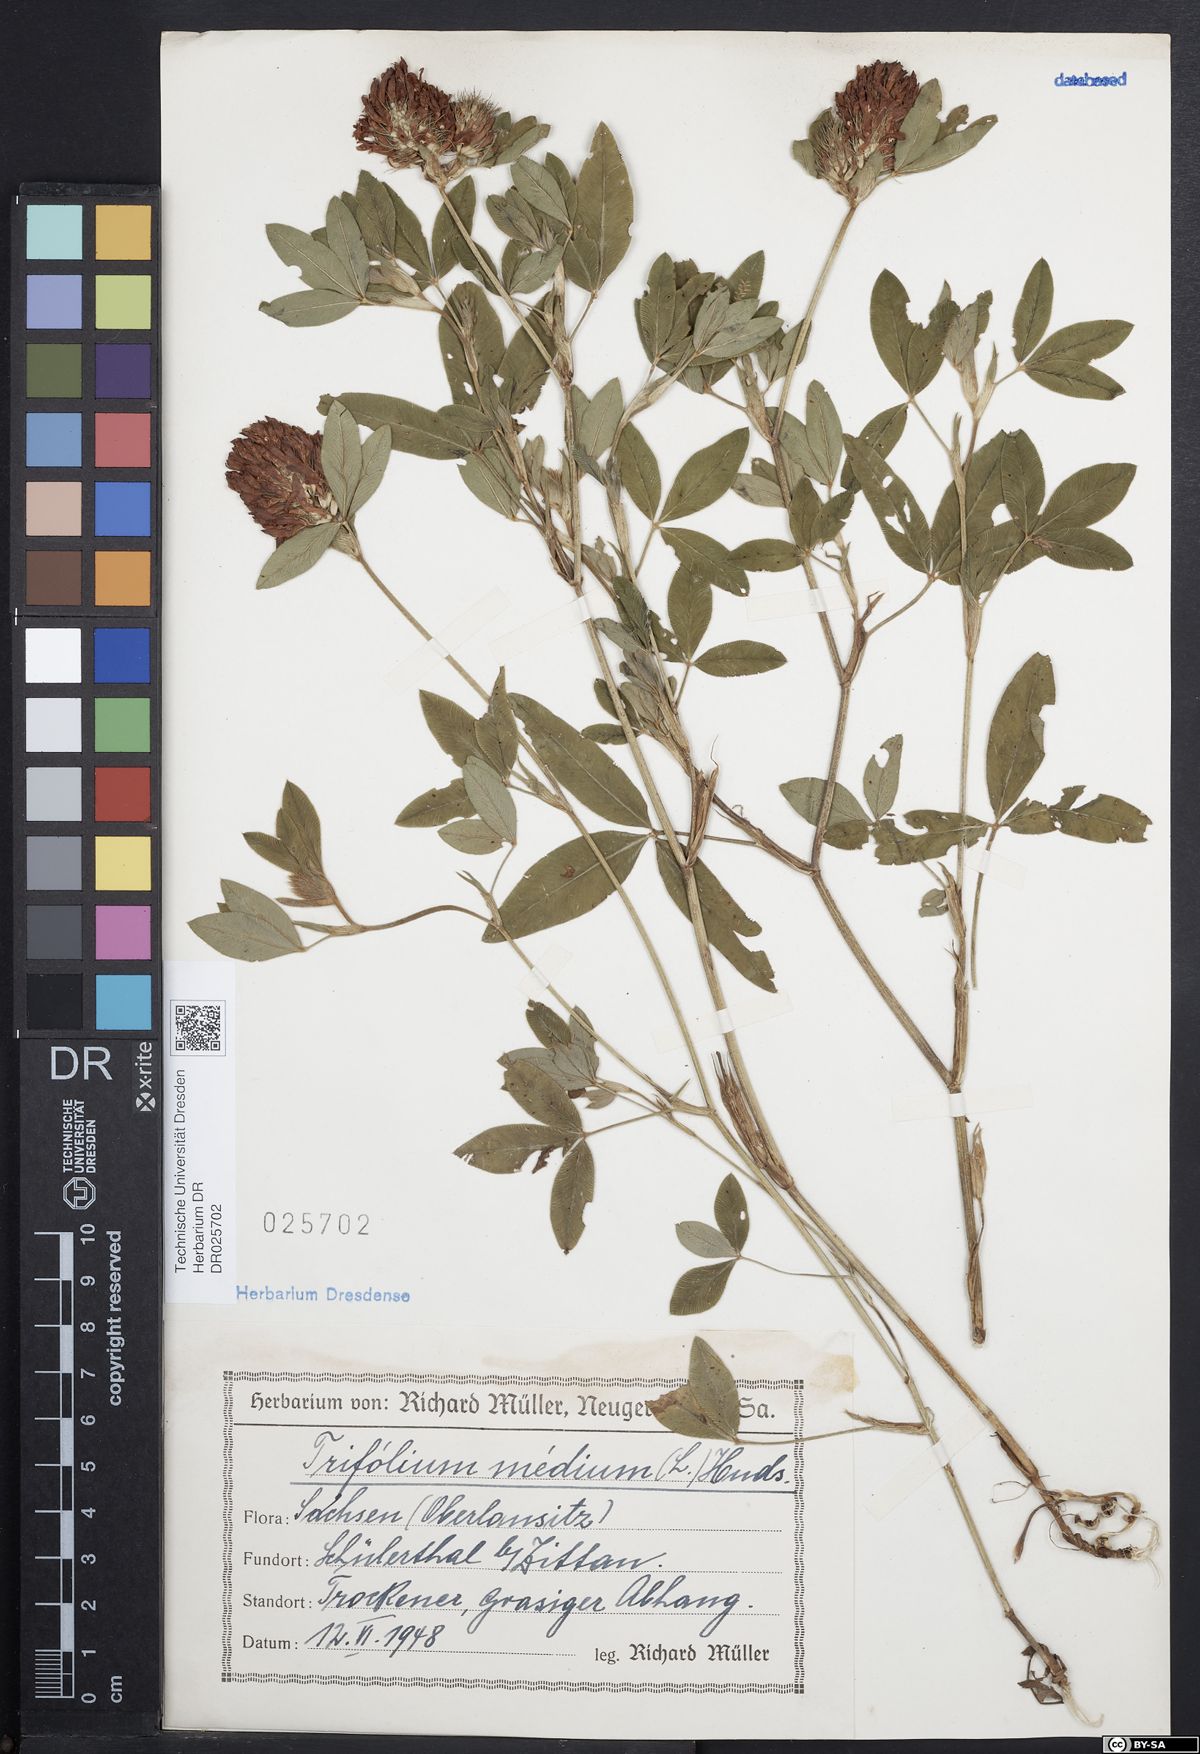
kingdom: Plantae
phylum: Tracheophyta
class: Magnoliopsida
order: Fabales
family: Fabaceae
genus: Trifolium
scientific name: Trifolium medium
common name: Zigzag clover
